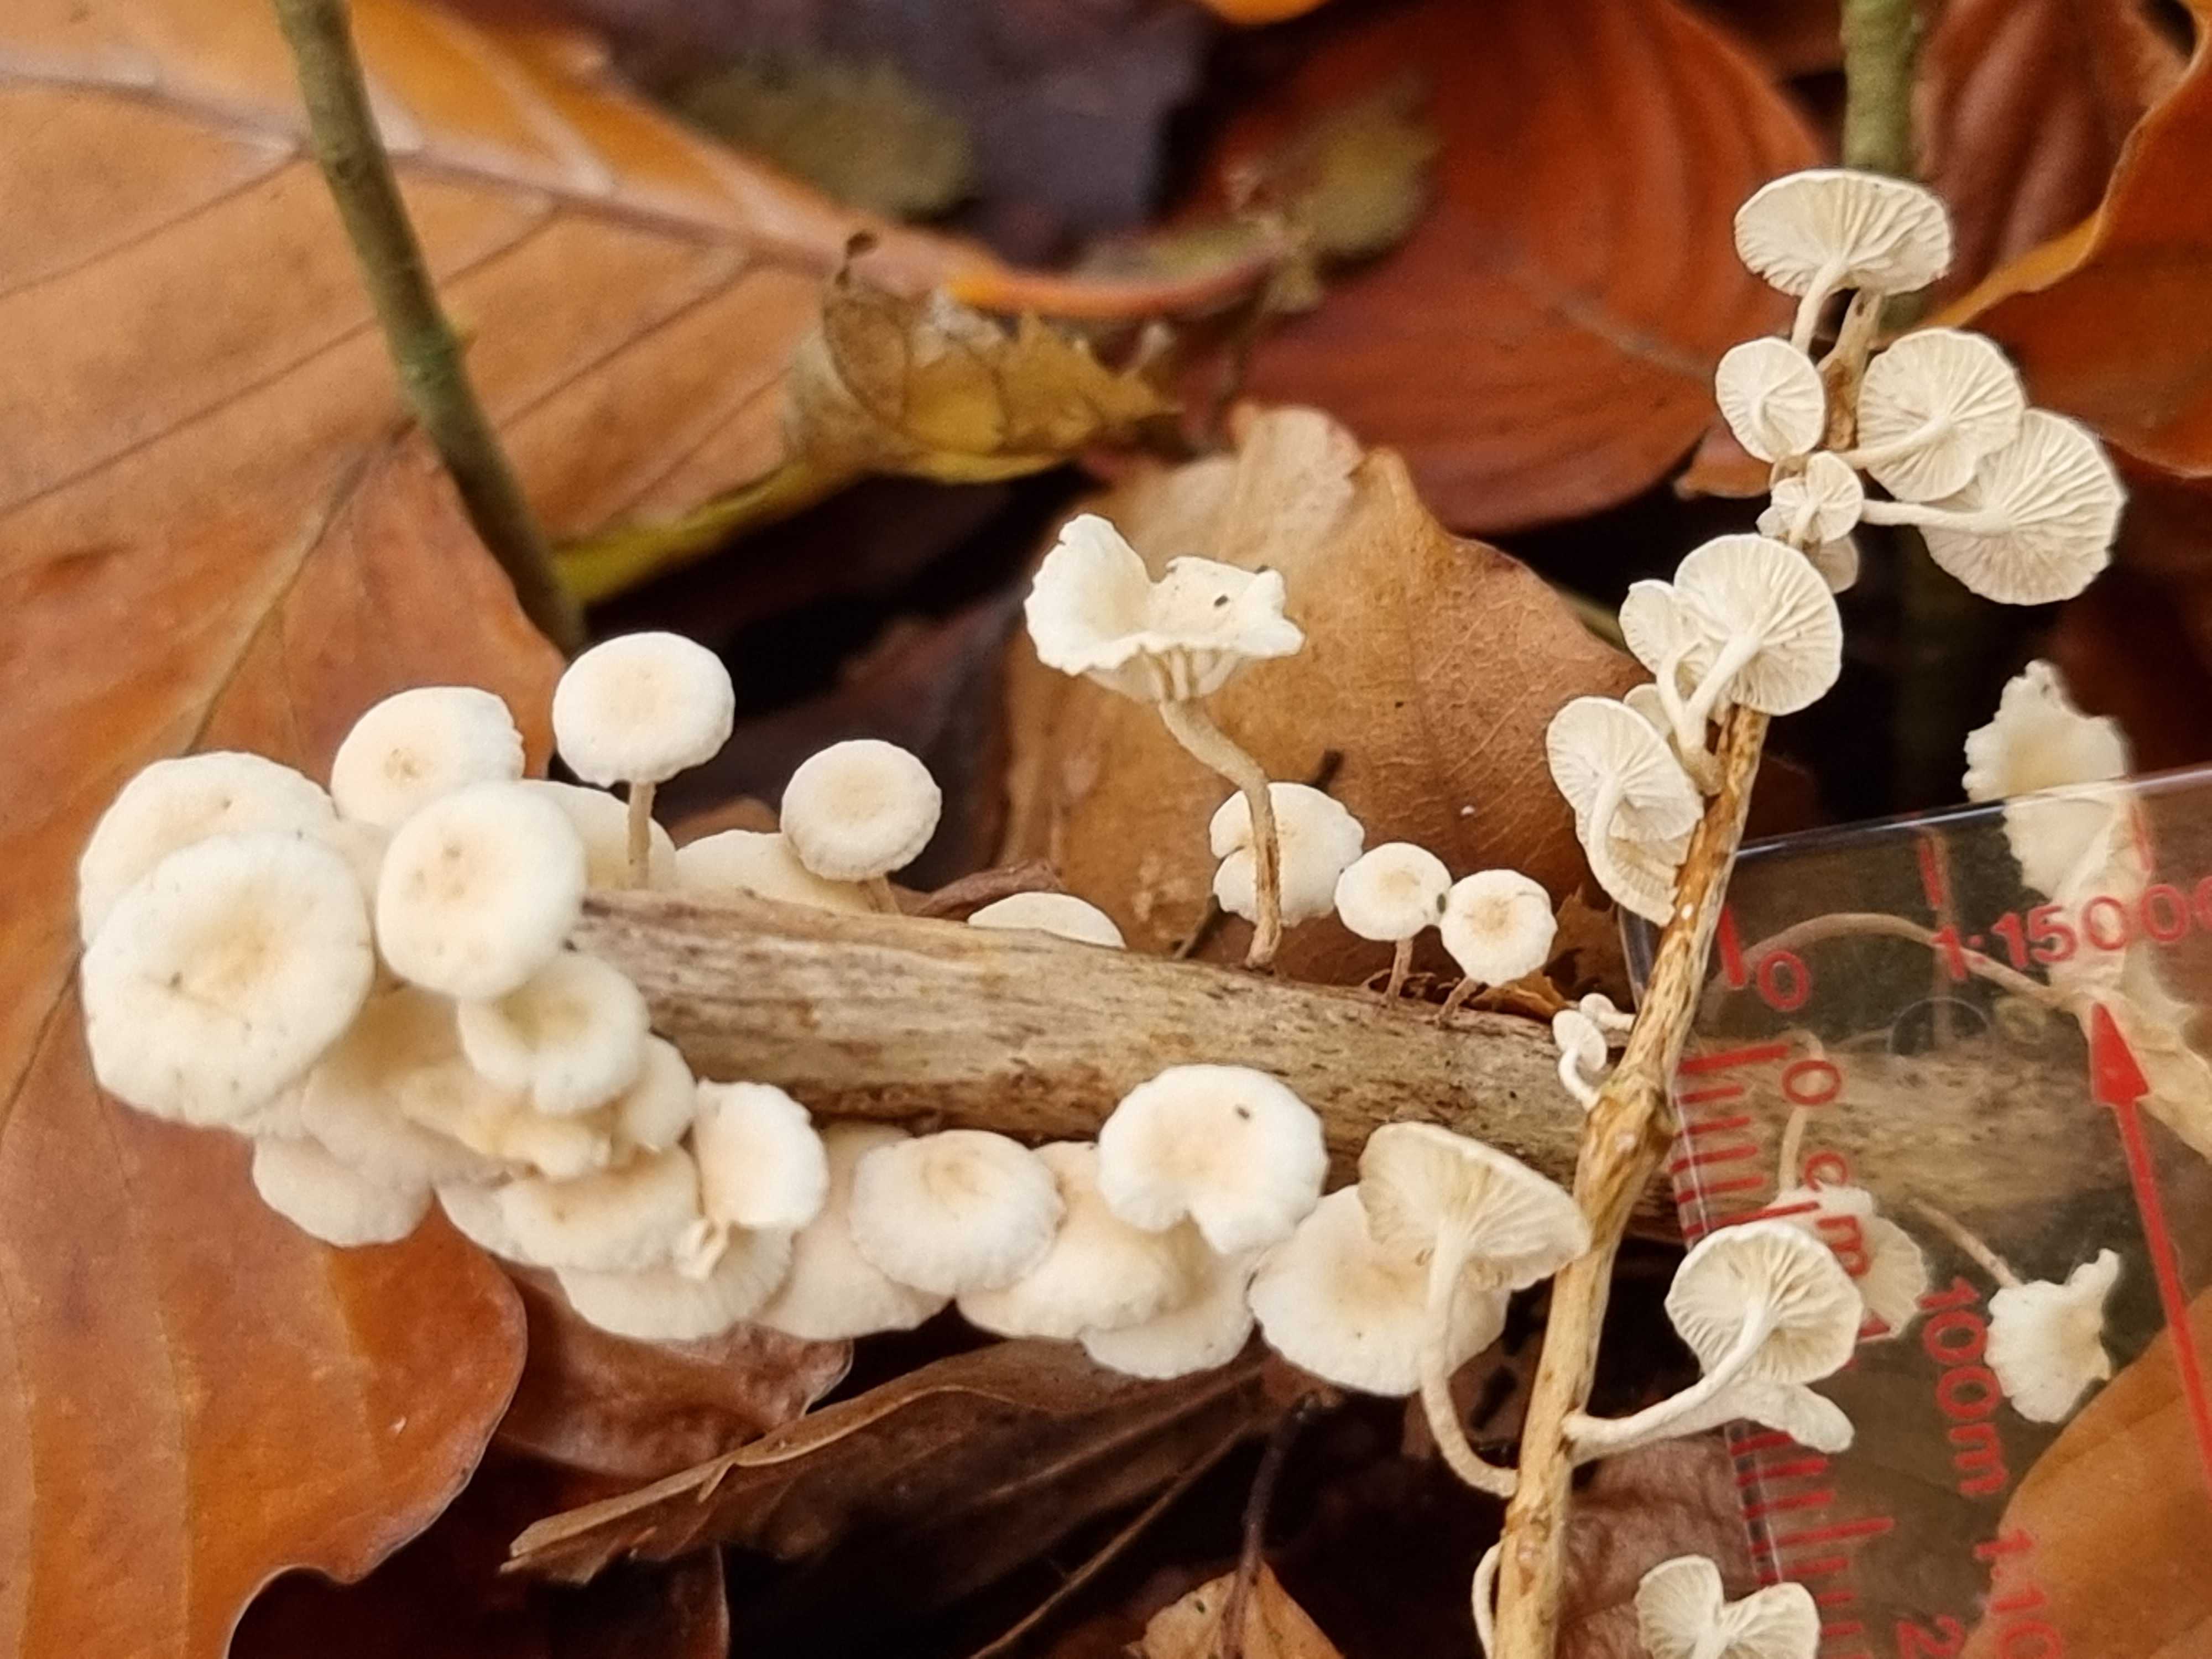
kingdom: Fungi
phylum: Basidiomycota
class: Agaricomycetes
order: Agaricales
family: Omphalotaceae
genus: Collybiopsis
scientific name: Collybiopsis ramealis
